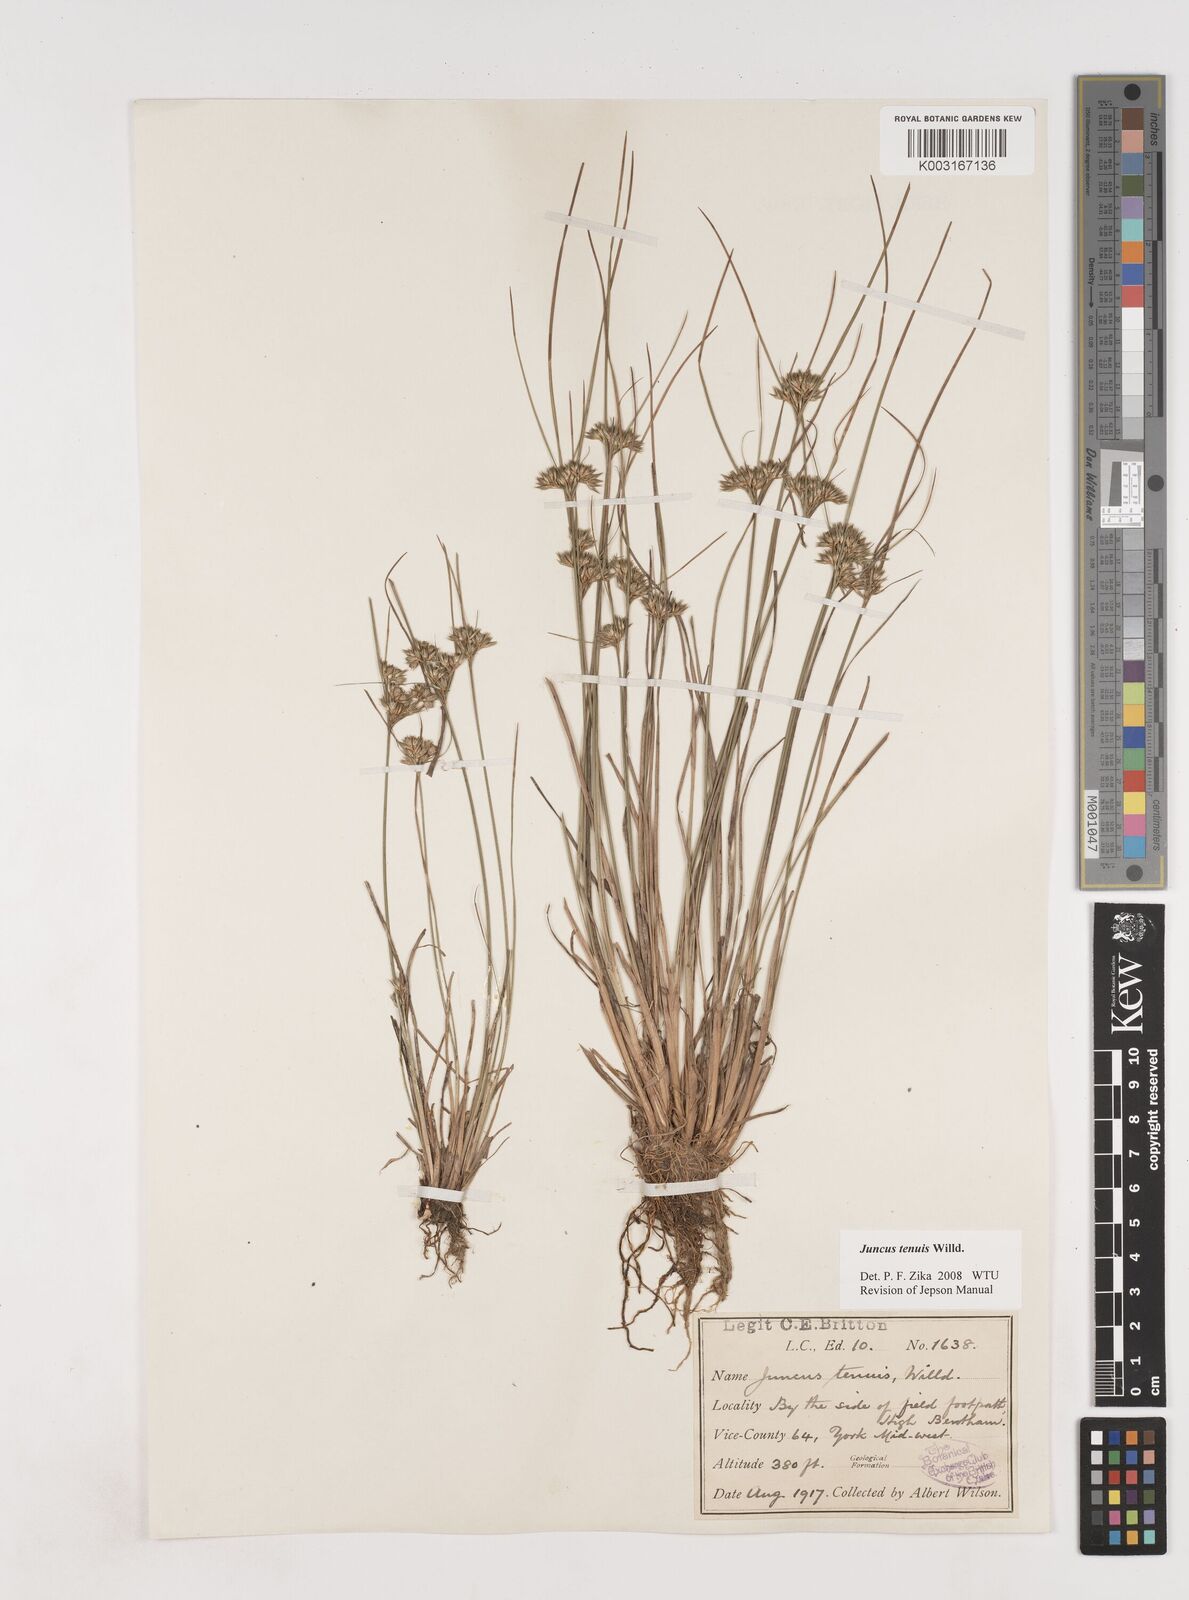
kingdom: Plantae
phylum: Tracheophyta
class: Liliopsida
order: Poales
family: Juncaceae
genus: Juncus
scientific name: Juncus tenuis
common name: Slender rush
